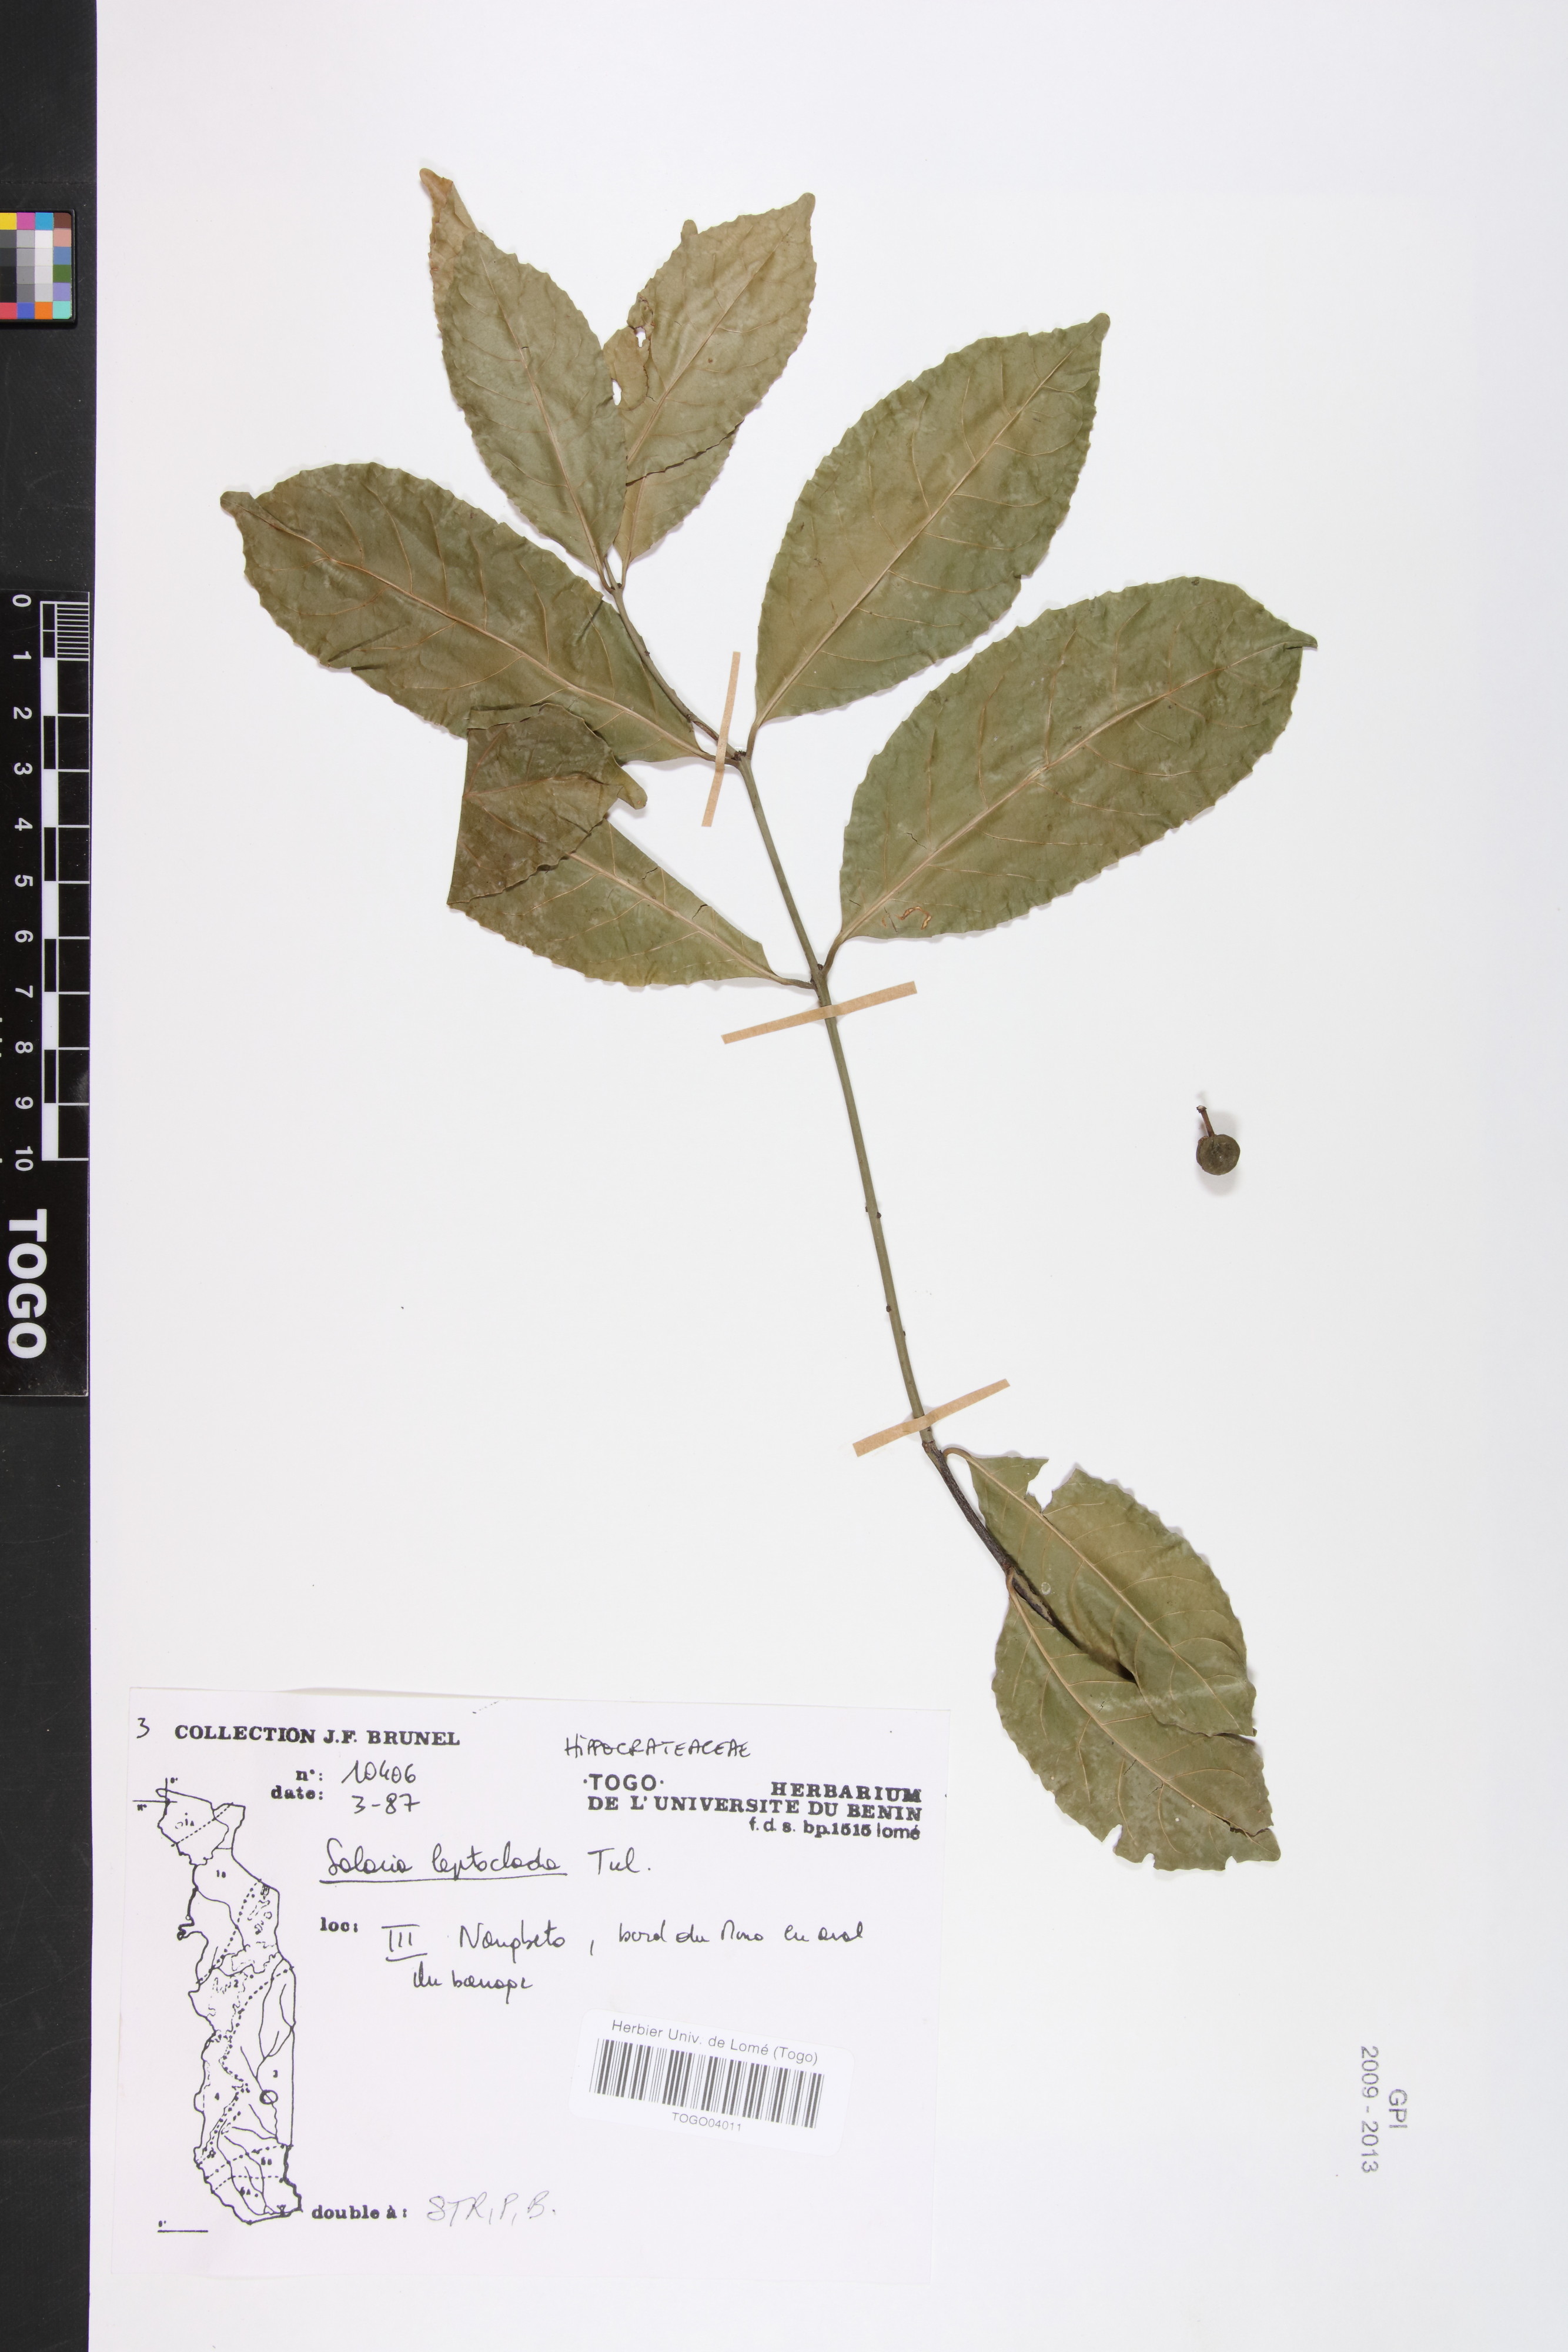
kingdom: Plantae
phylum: Tracheophyta
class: Magnoliopsida
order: Celastrales
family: Celastraceae
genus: Salacia
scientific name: Salacia leptoclada
